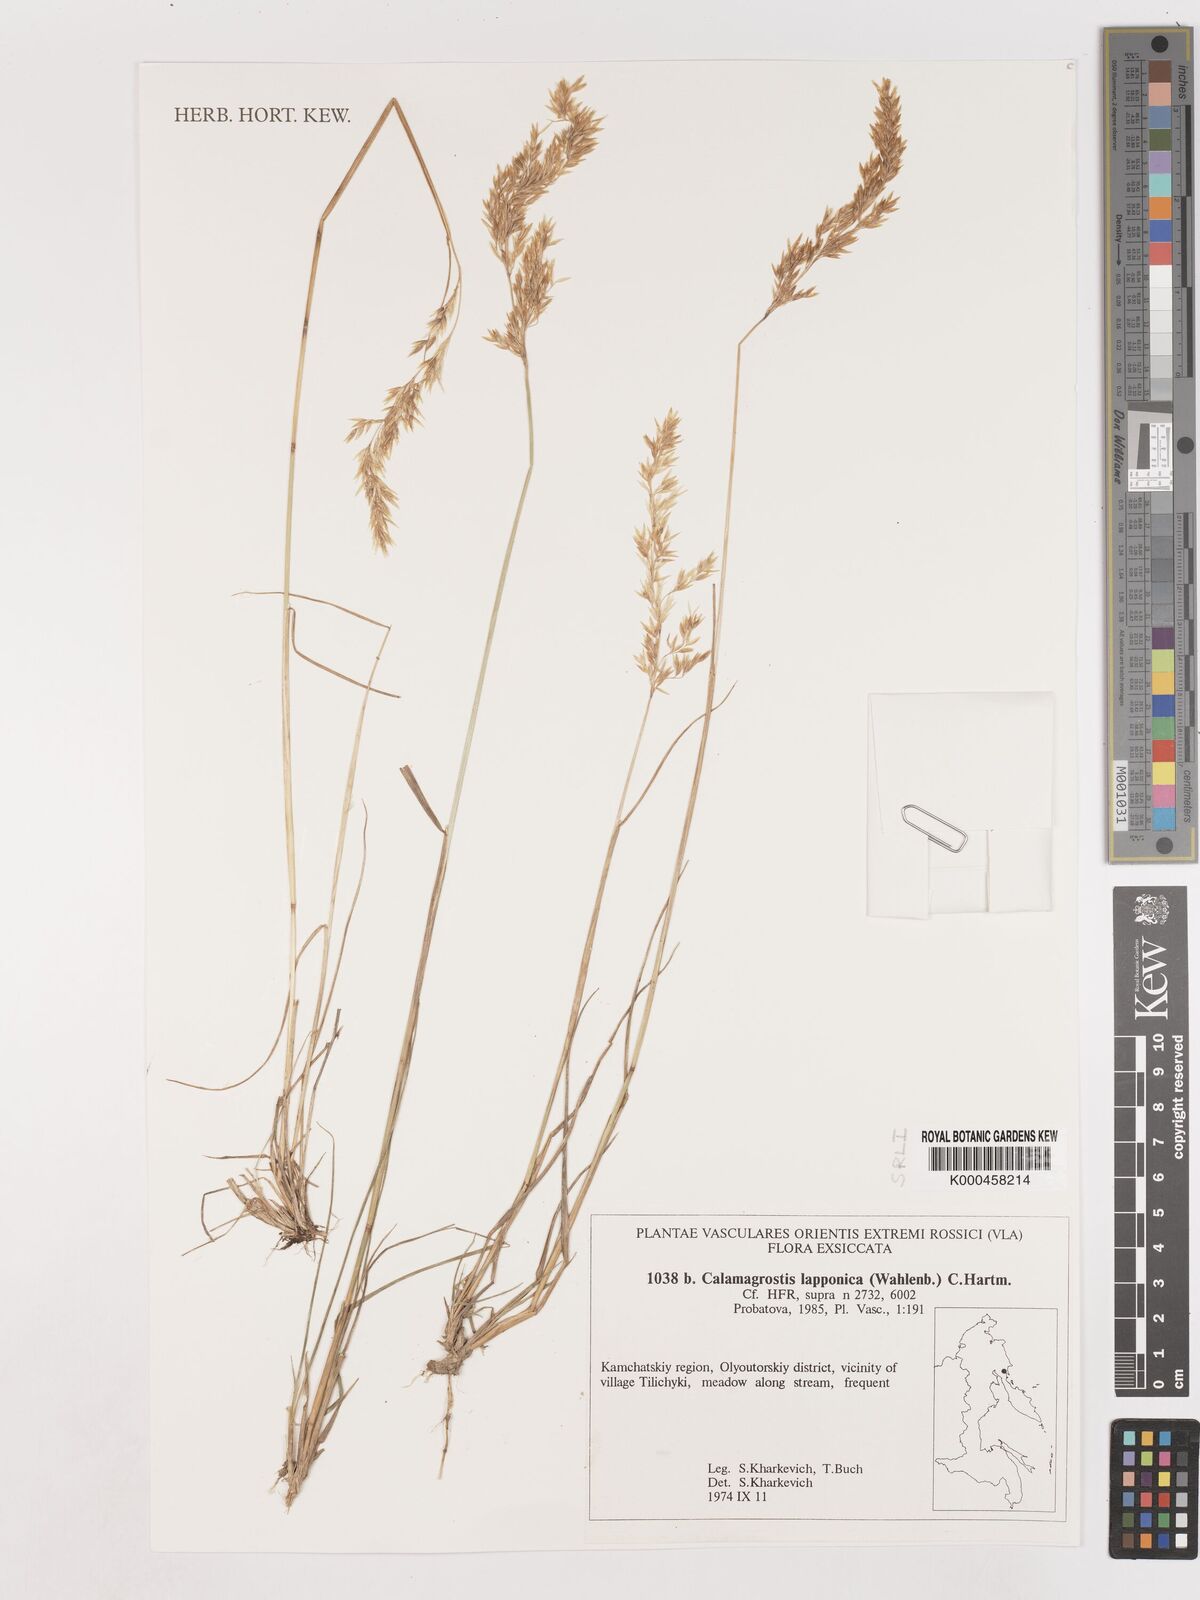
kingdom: Plantae
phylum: Tracheophyta
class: Liliopsida
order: Poales
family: Poaceae
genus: Calamagrostis
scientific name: Calamagrostis
